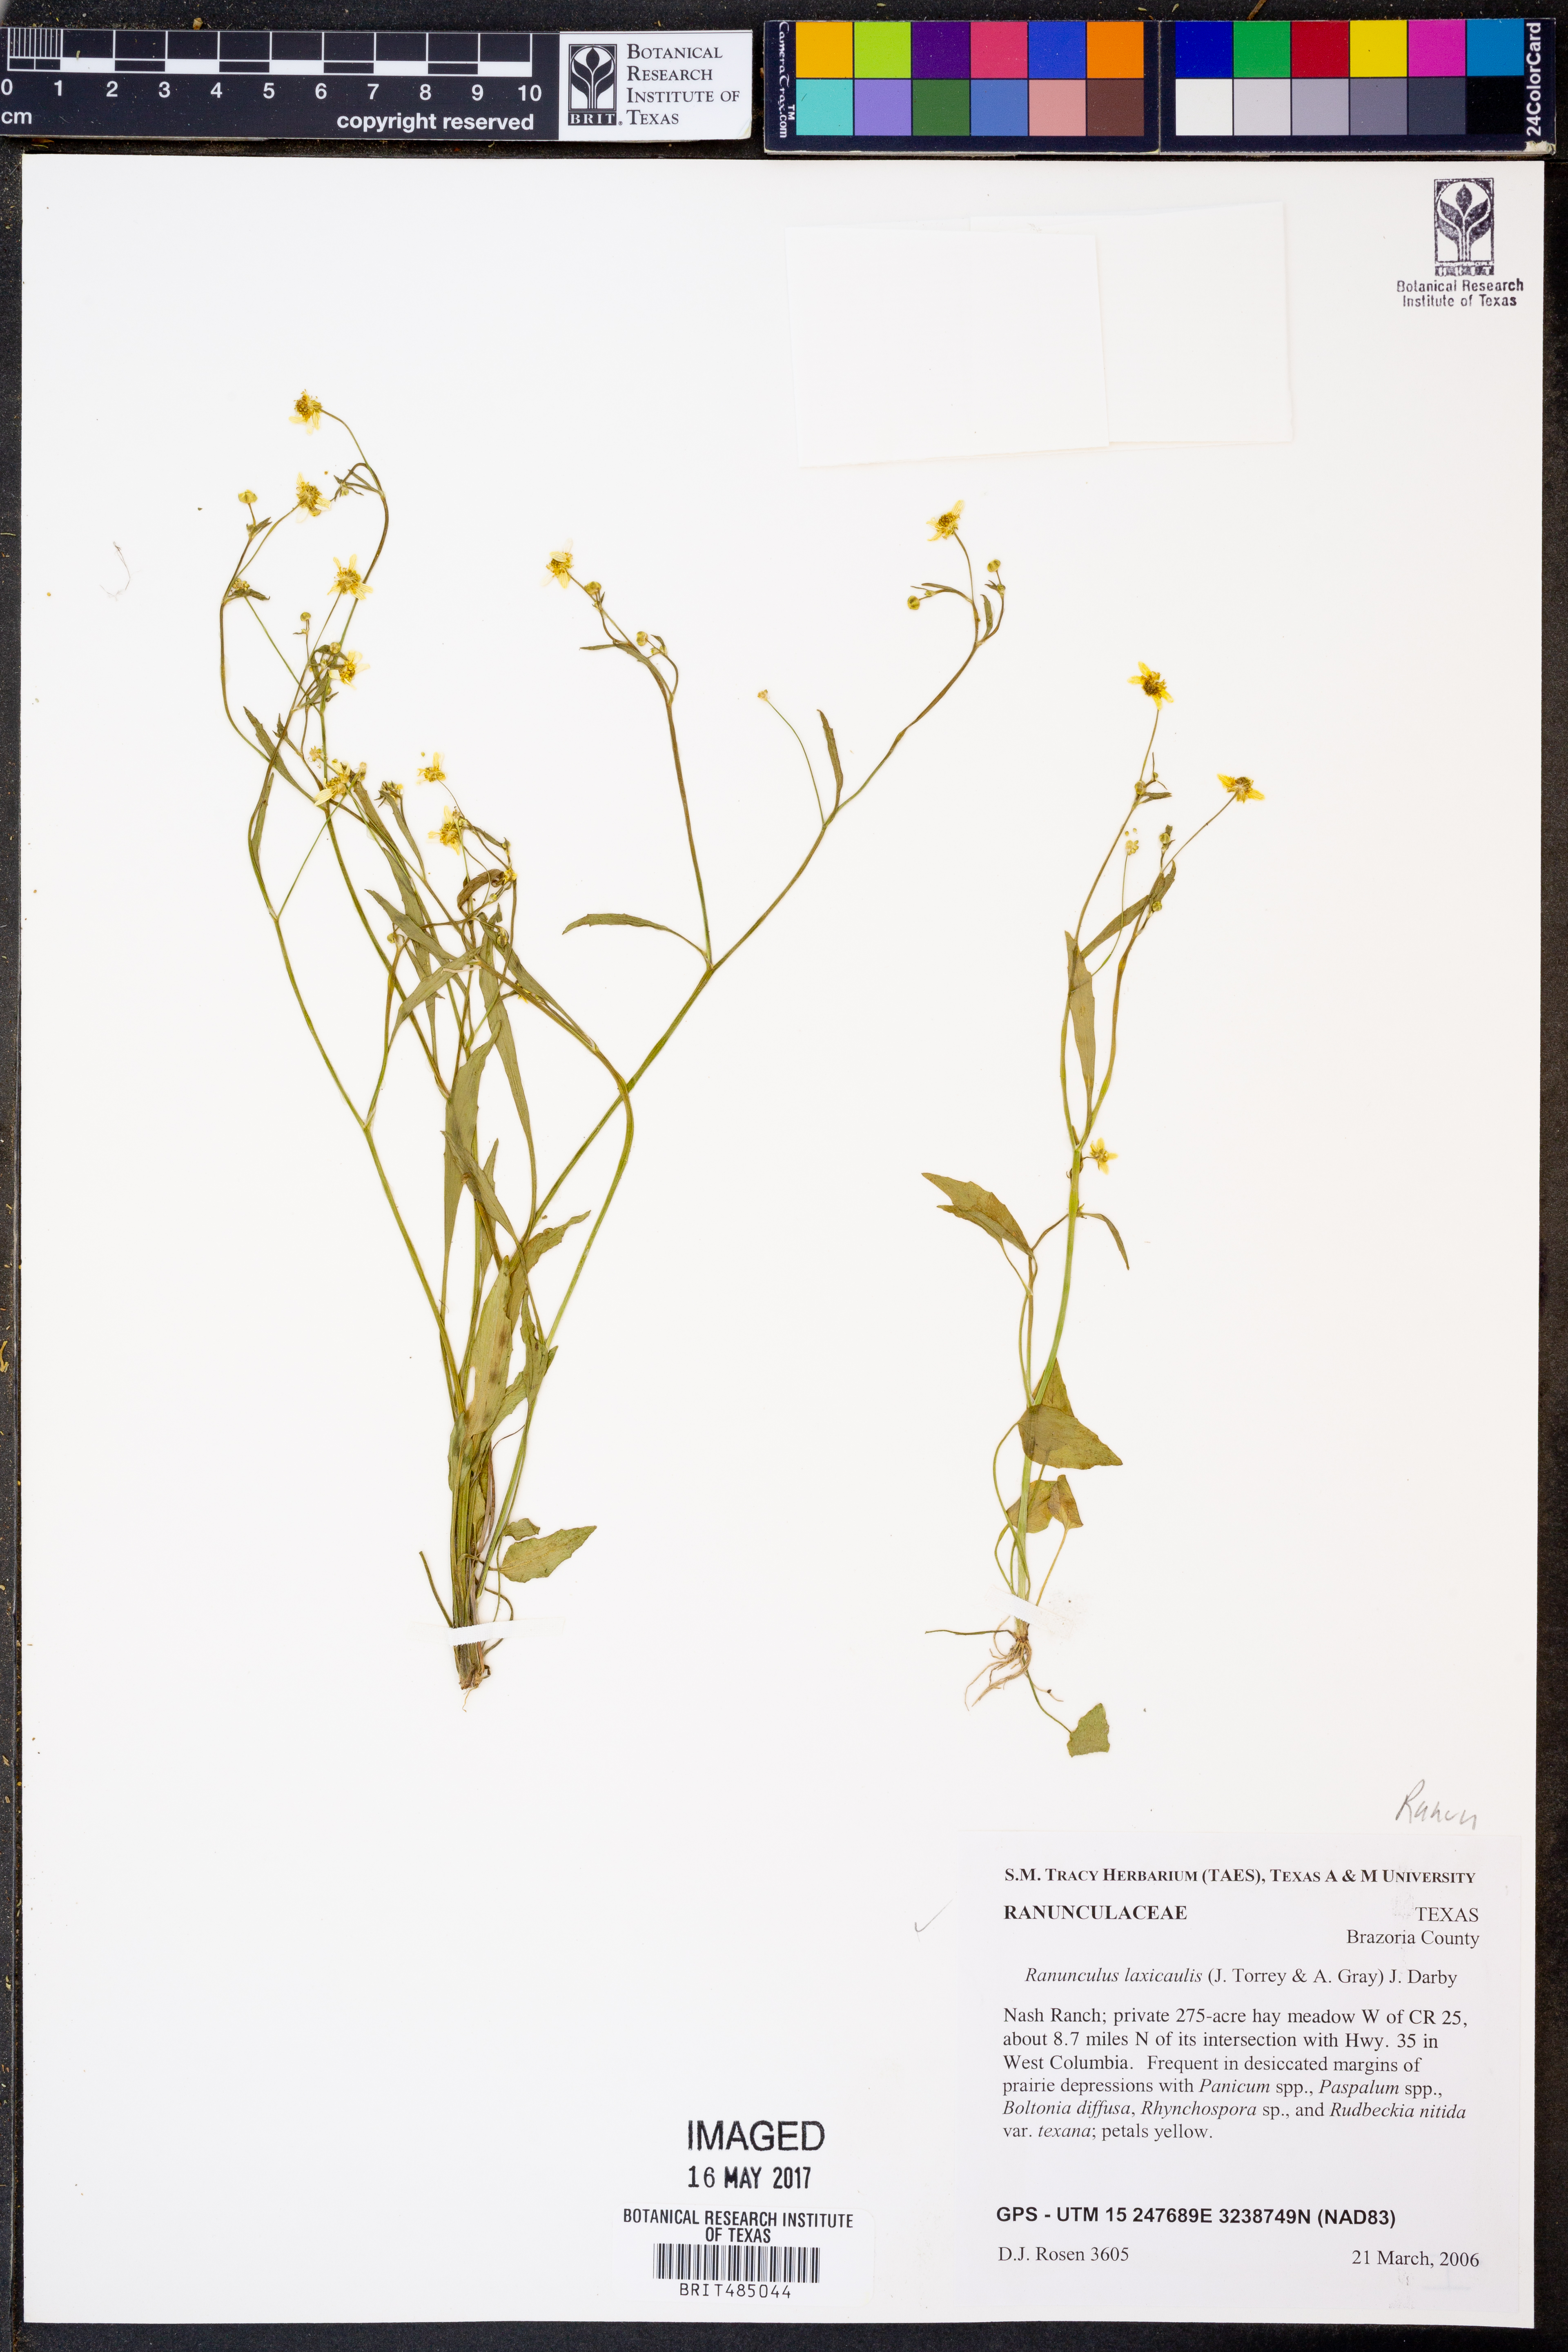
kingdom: Plantae
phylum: Tracheophyta
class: Magnoliopsida
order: Ranunculales
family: Ranunculaceae
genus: Ranunculus
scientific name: Ranunculus laxicaulis
